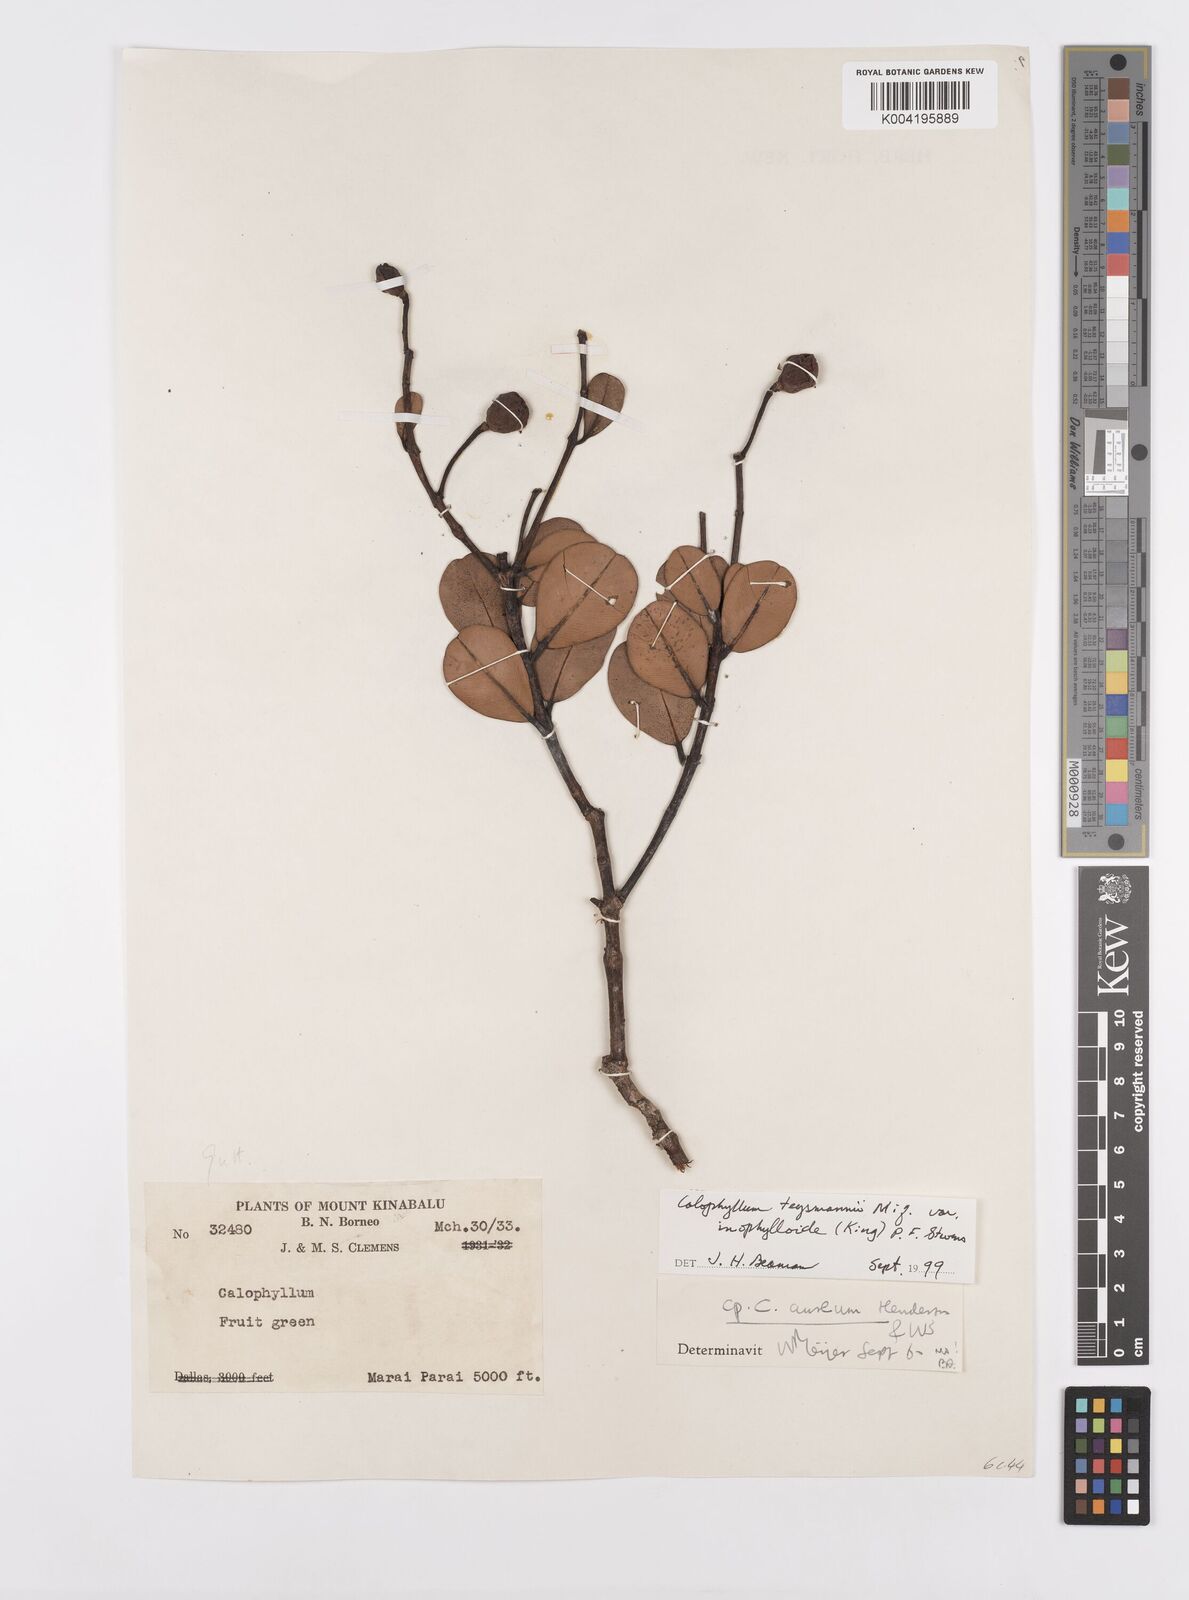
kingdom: Plantae
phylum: Tracheophyta
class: Magnoliopsida
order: Malpighiales
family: Calophyllaceae
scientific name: Calophyllaceae
